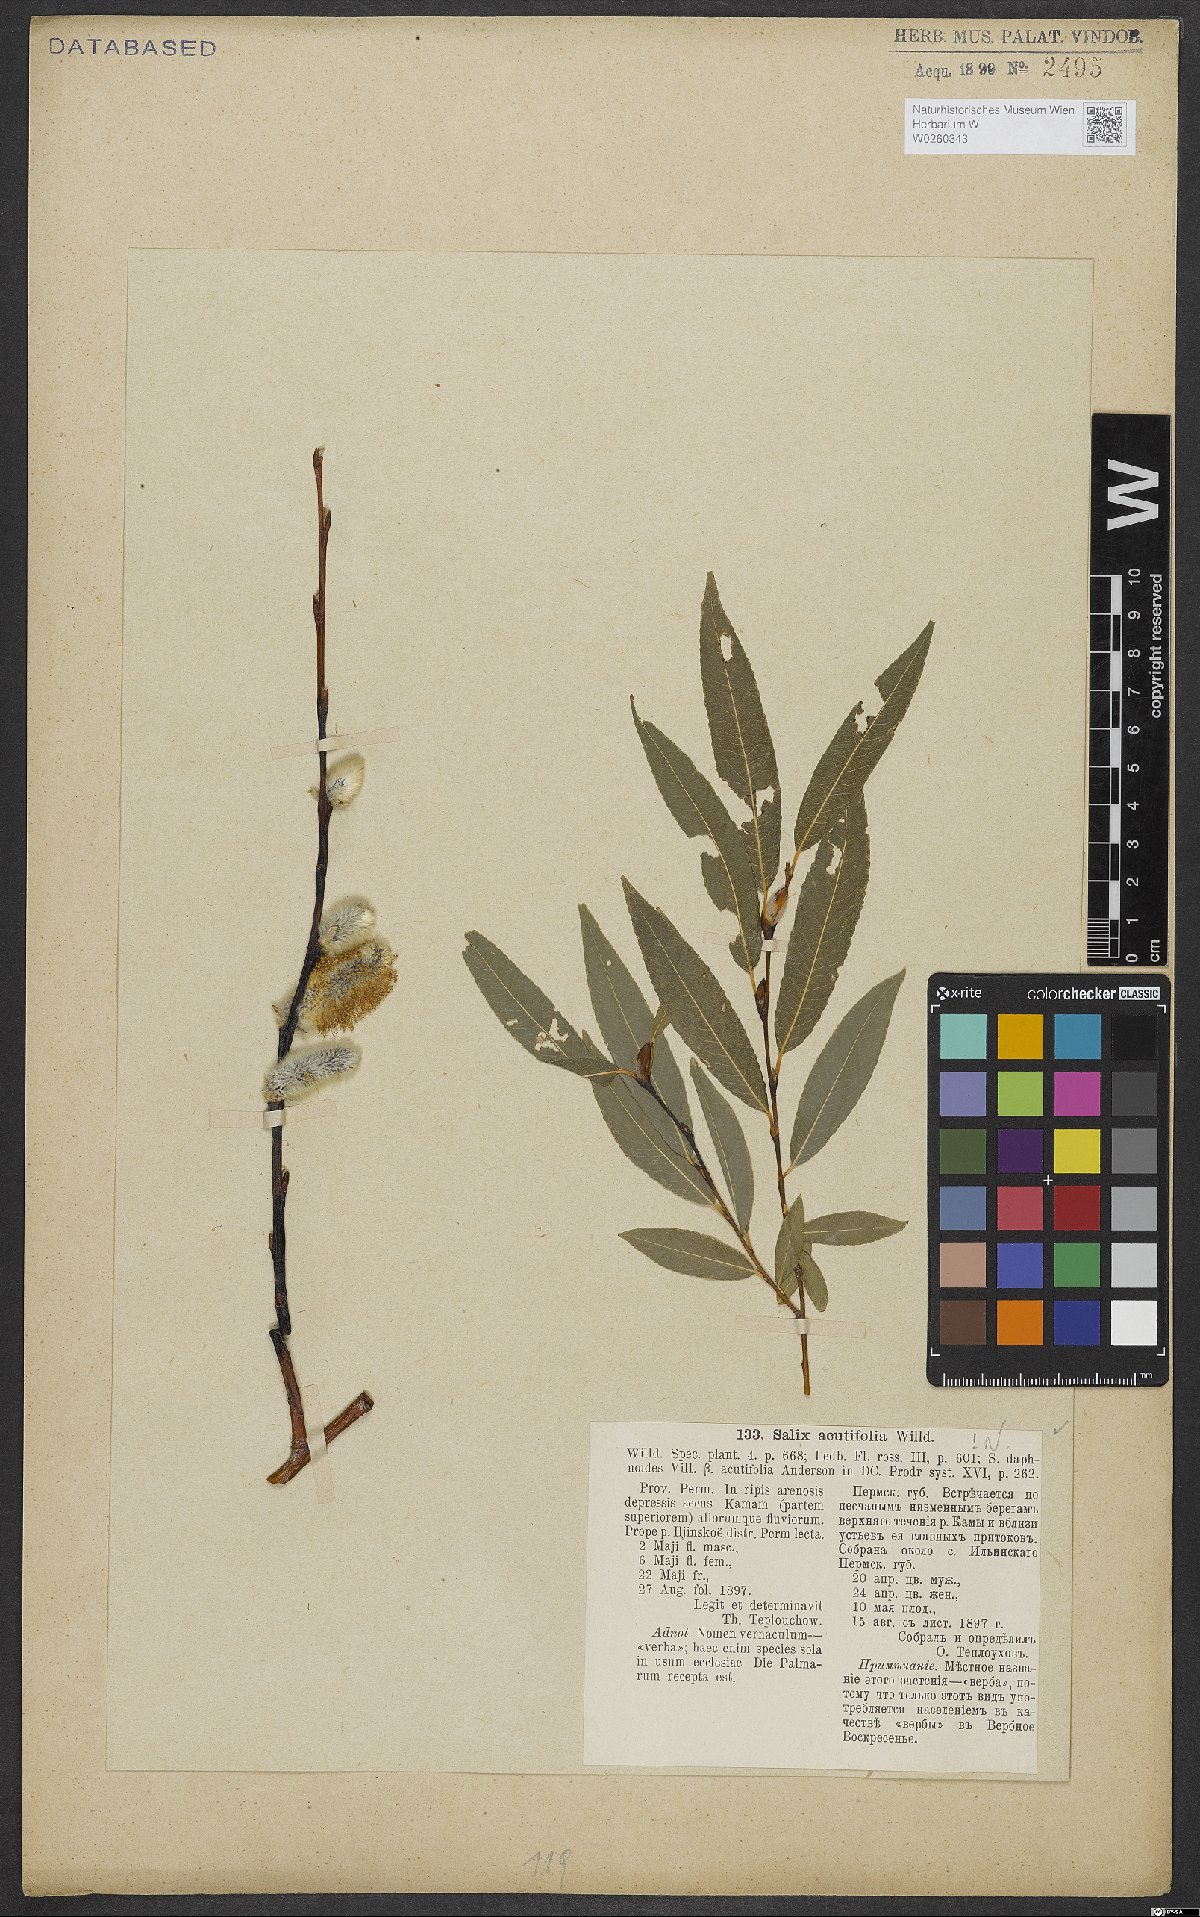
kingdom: Plantae
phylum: Tracheophyta
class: Magnoliopsida
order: Malpighiales
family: Salicaceae
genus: Salix
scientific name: Salix acutifolia
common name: Siberian violet-willow
